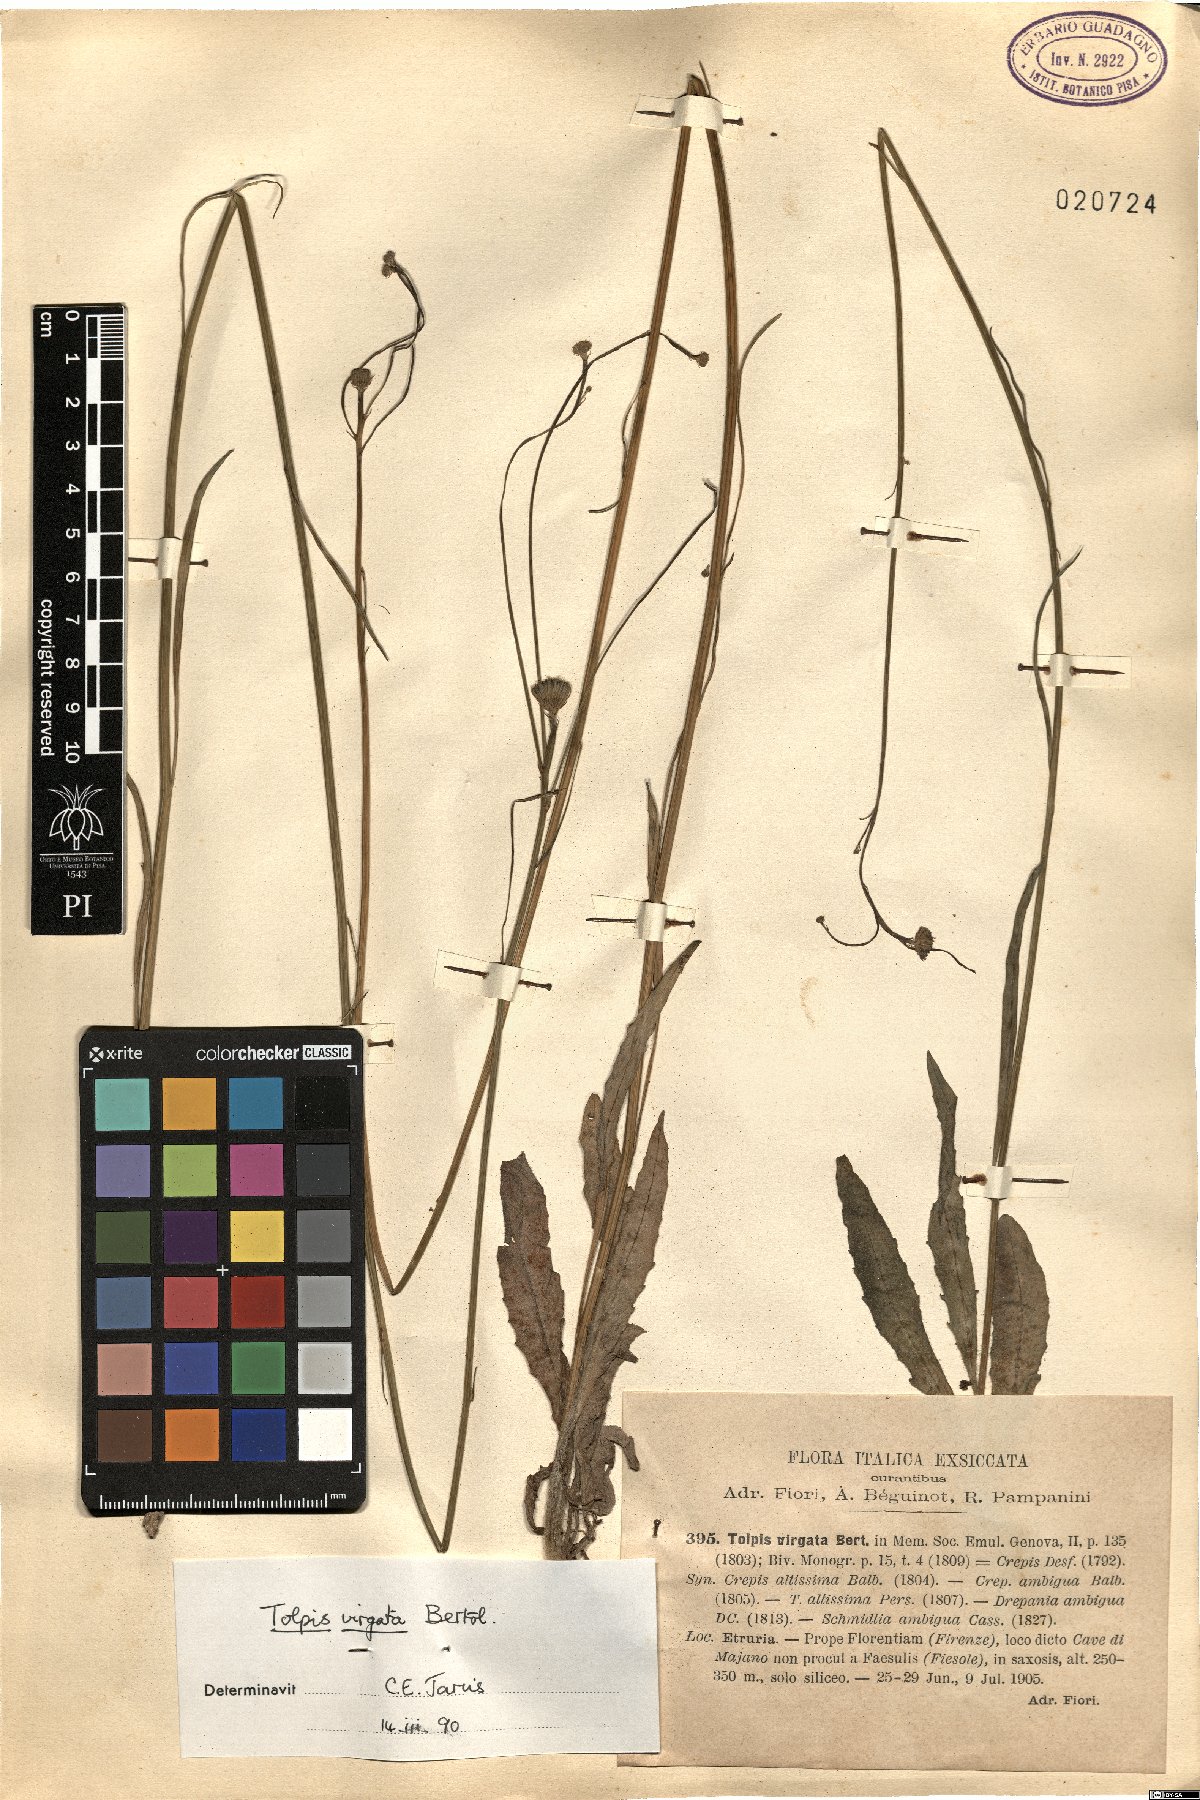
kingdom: Plantae
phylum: Tracheophyta
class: Magnoliopsida
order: Asterales
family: Asteraceae
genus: Tolpis
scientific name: Tolpis virgata
